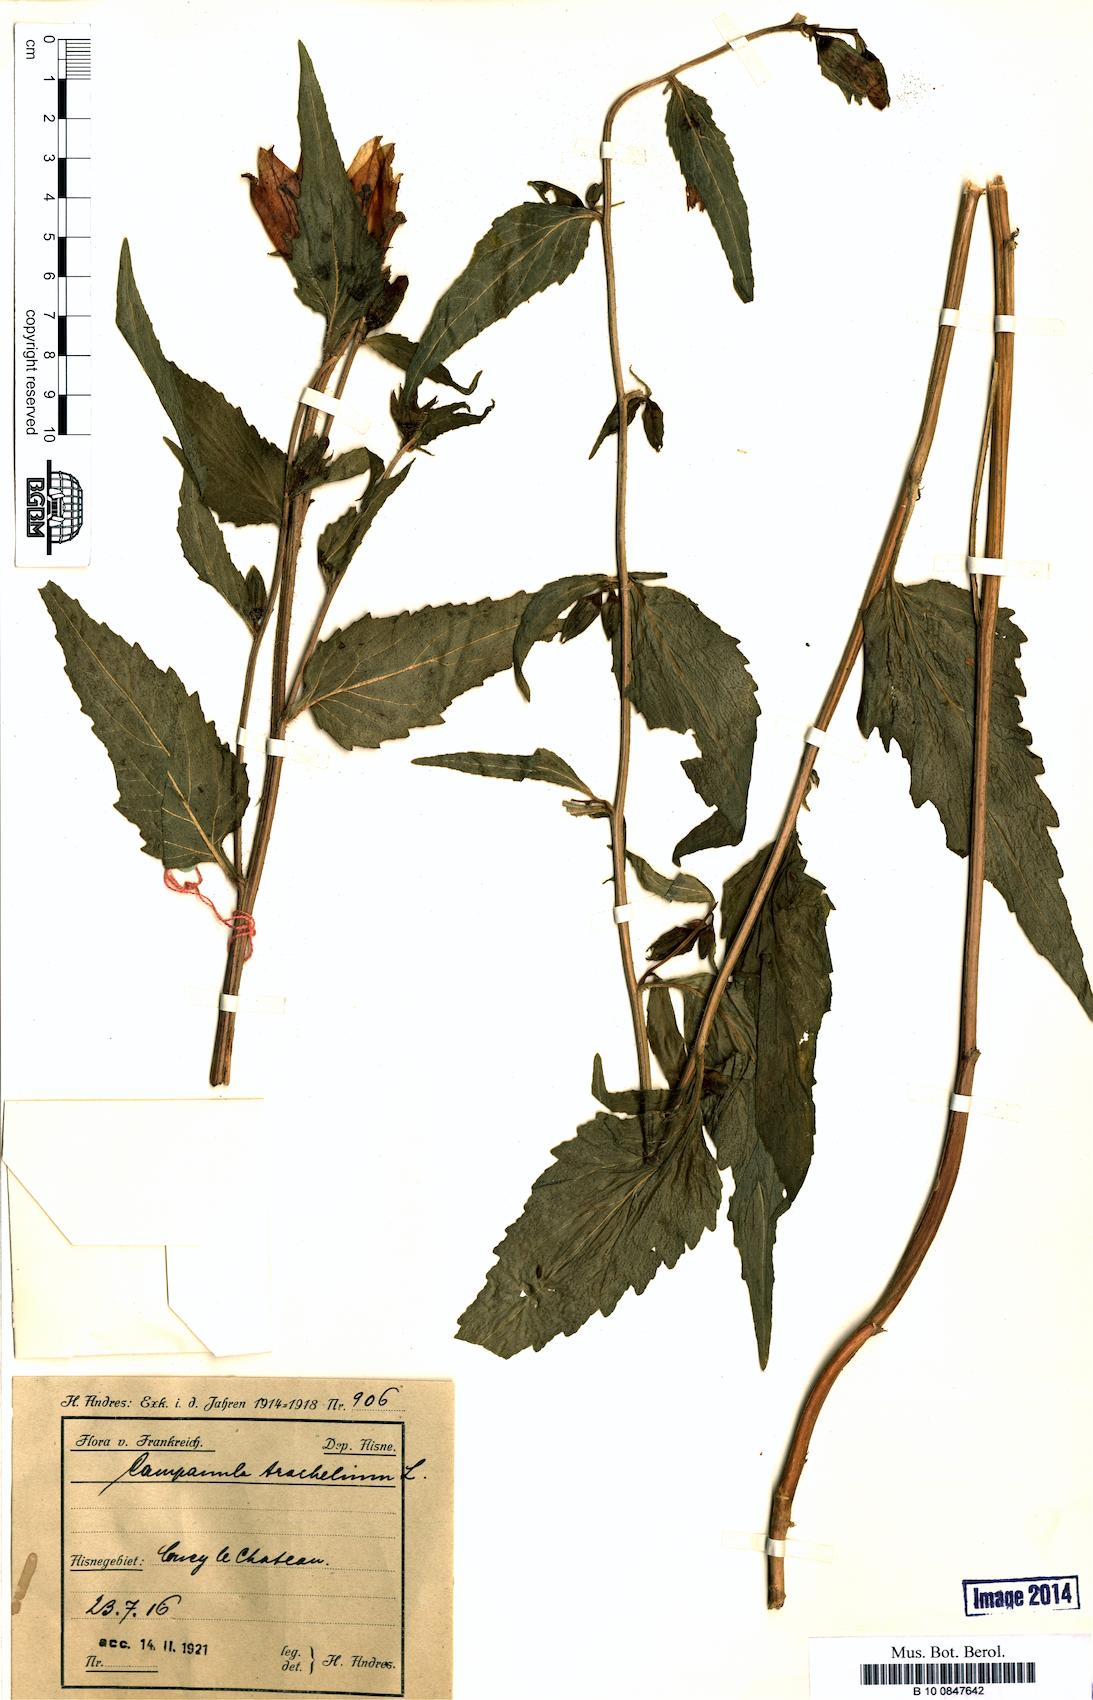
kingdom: Plantae
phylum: Tracheophyta
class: Magnoliopsida
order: Asterales
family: Campanulaceae
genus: Campanula
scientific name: Campanula trachelium
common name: Nettle-leaved bellflower
